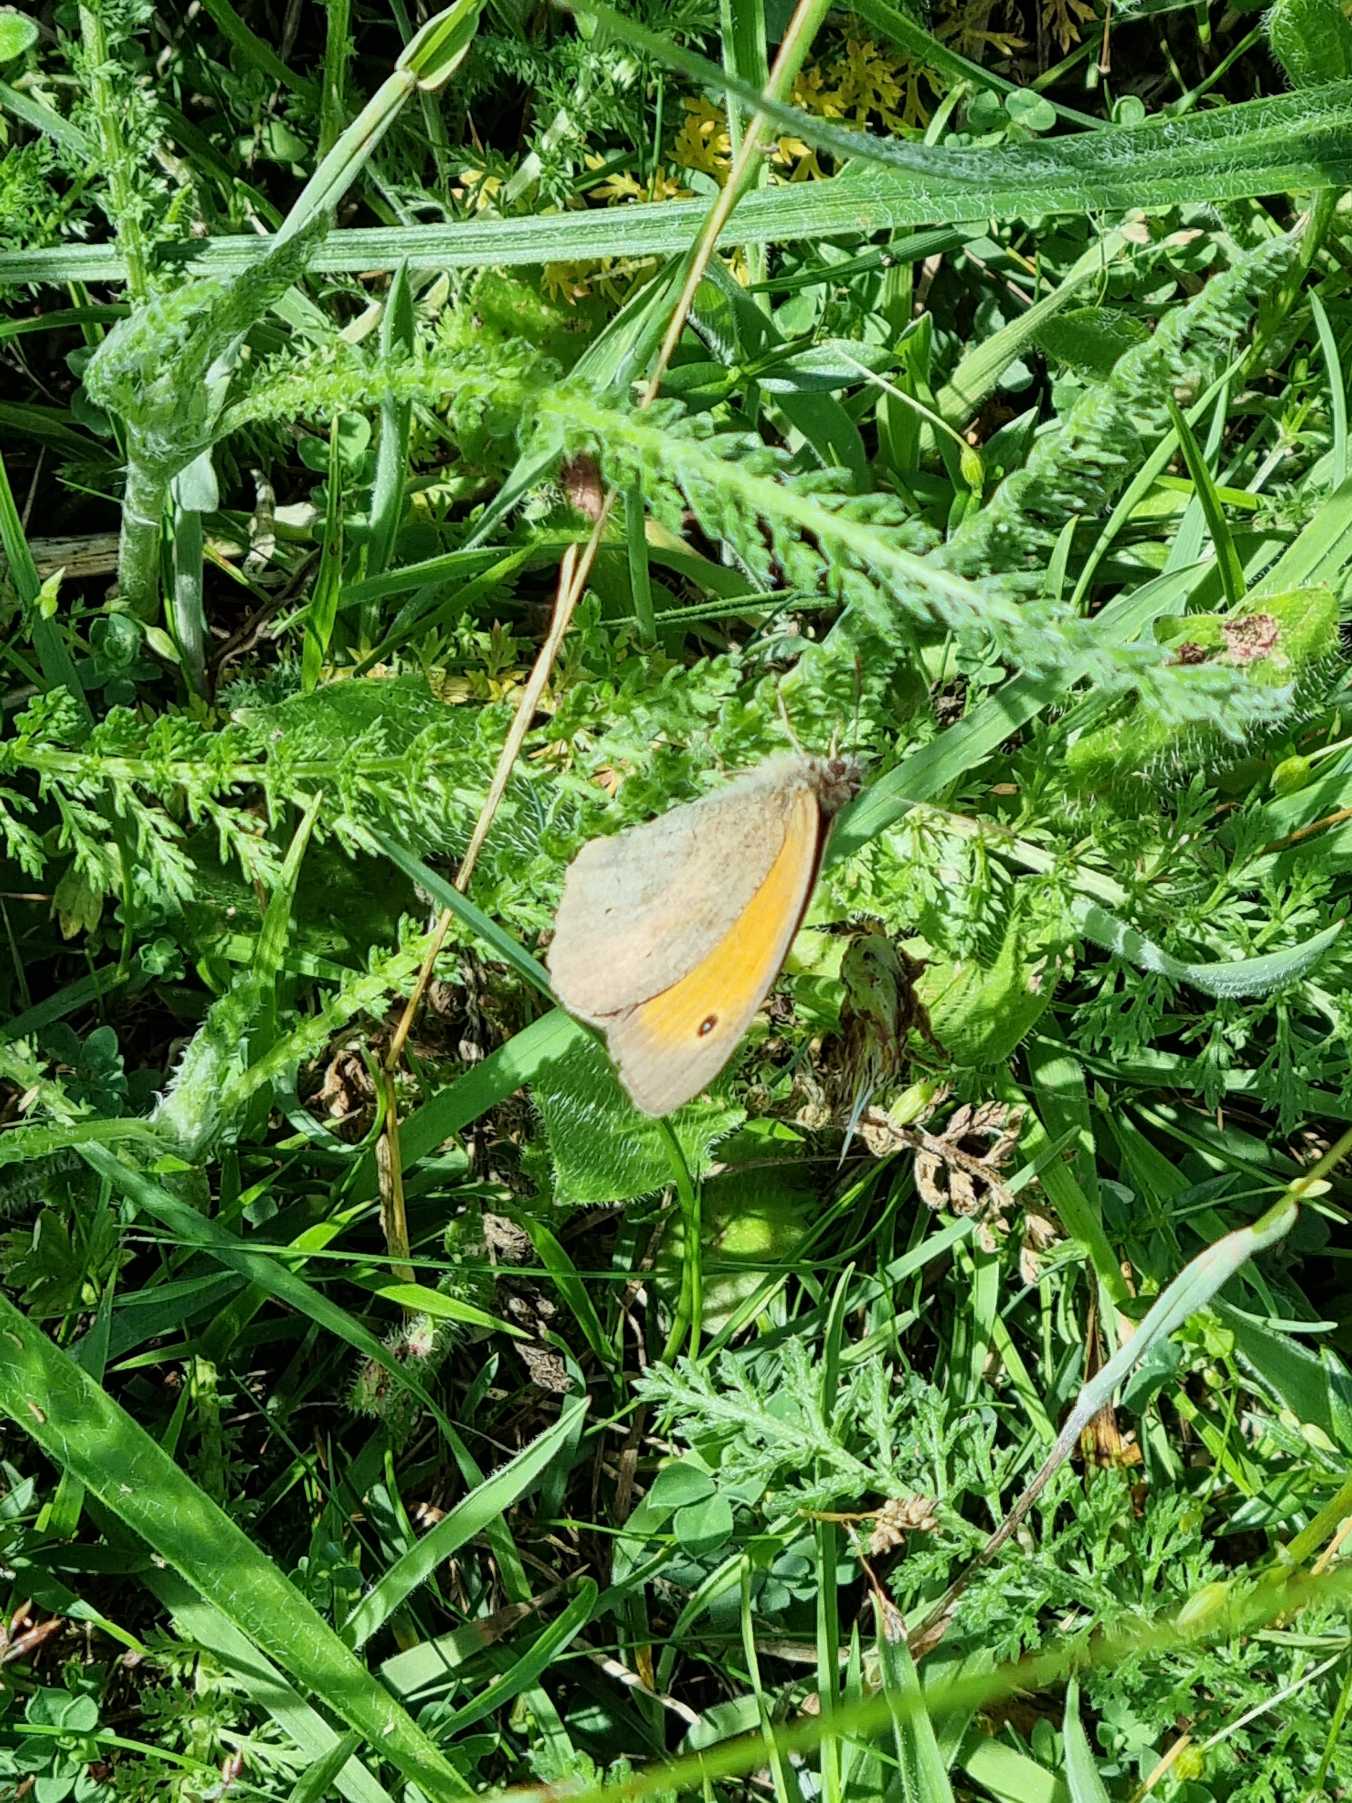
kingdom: Animalia
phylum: Arthropoda
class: Insecta
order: Lepidoptera
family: Nymphalidae
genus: Maniola
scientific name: Maniola jurtina
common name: Græsrandøje
